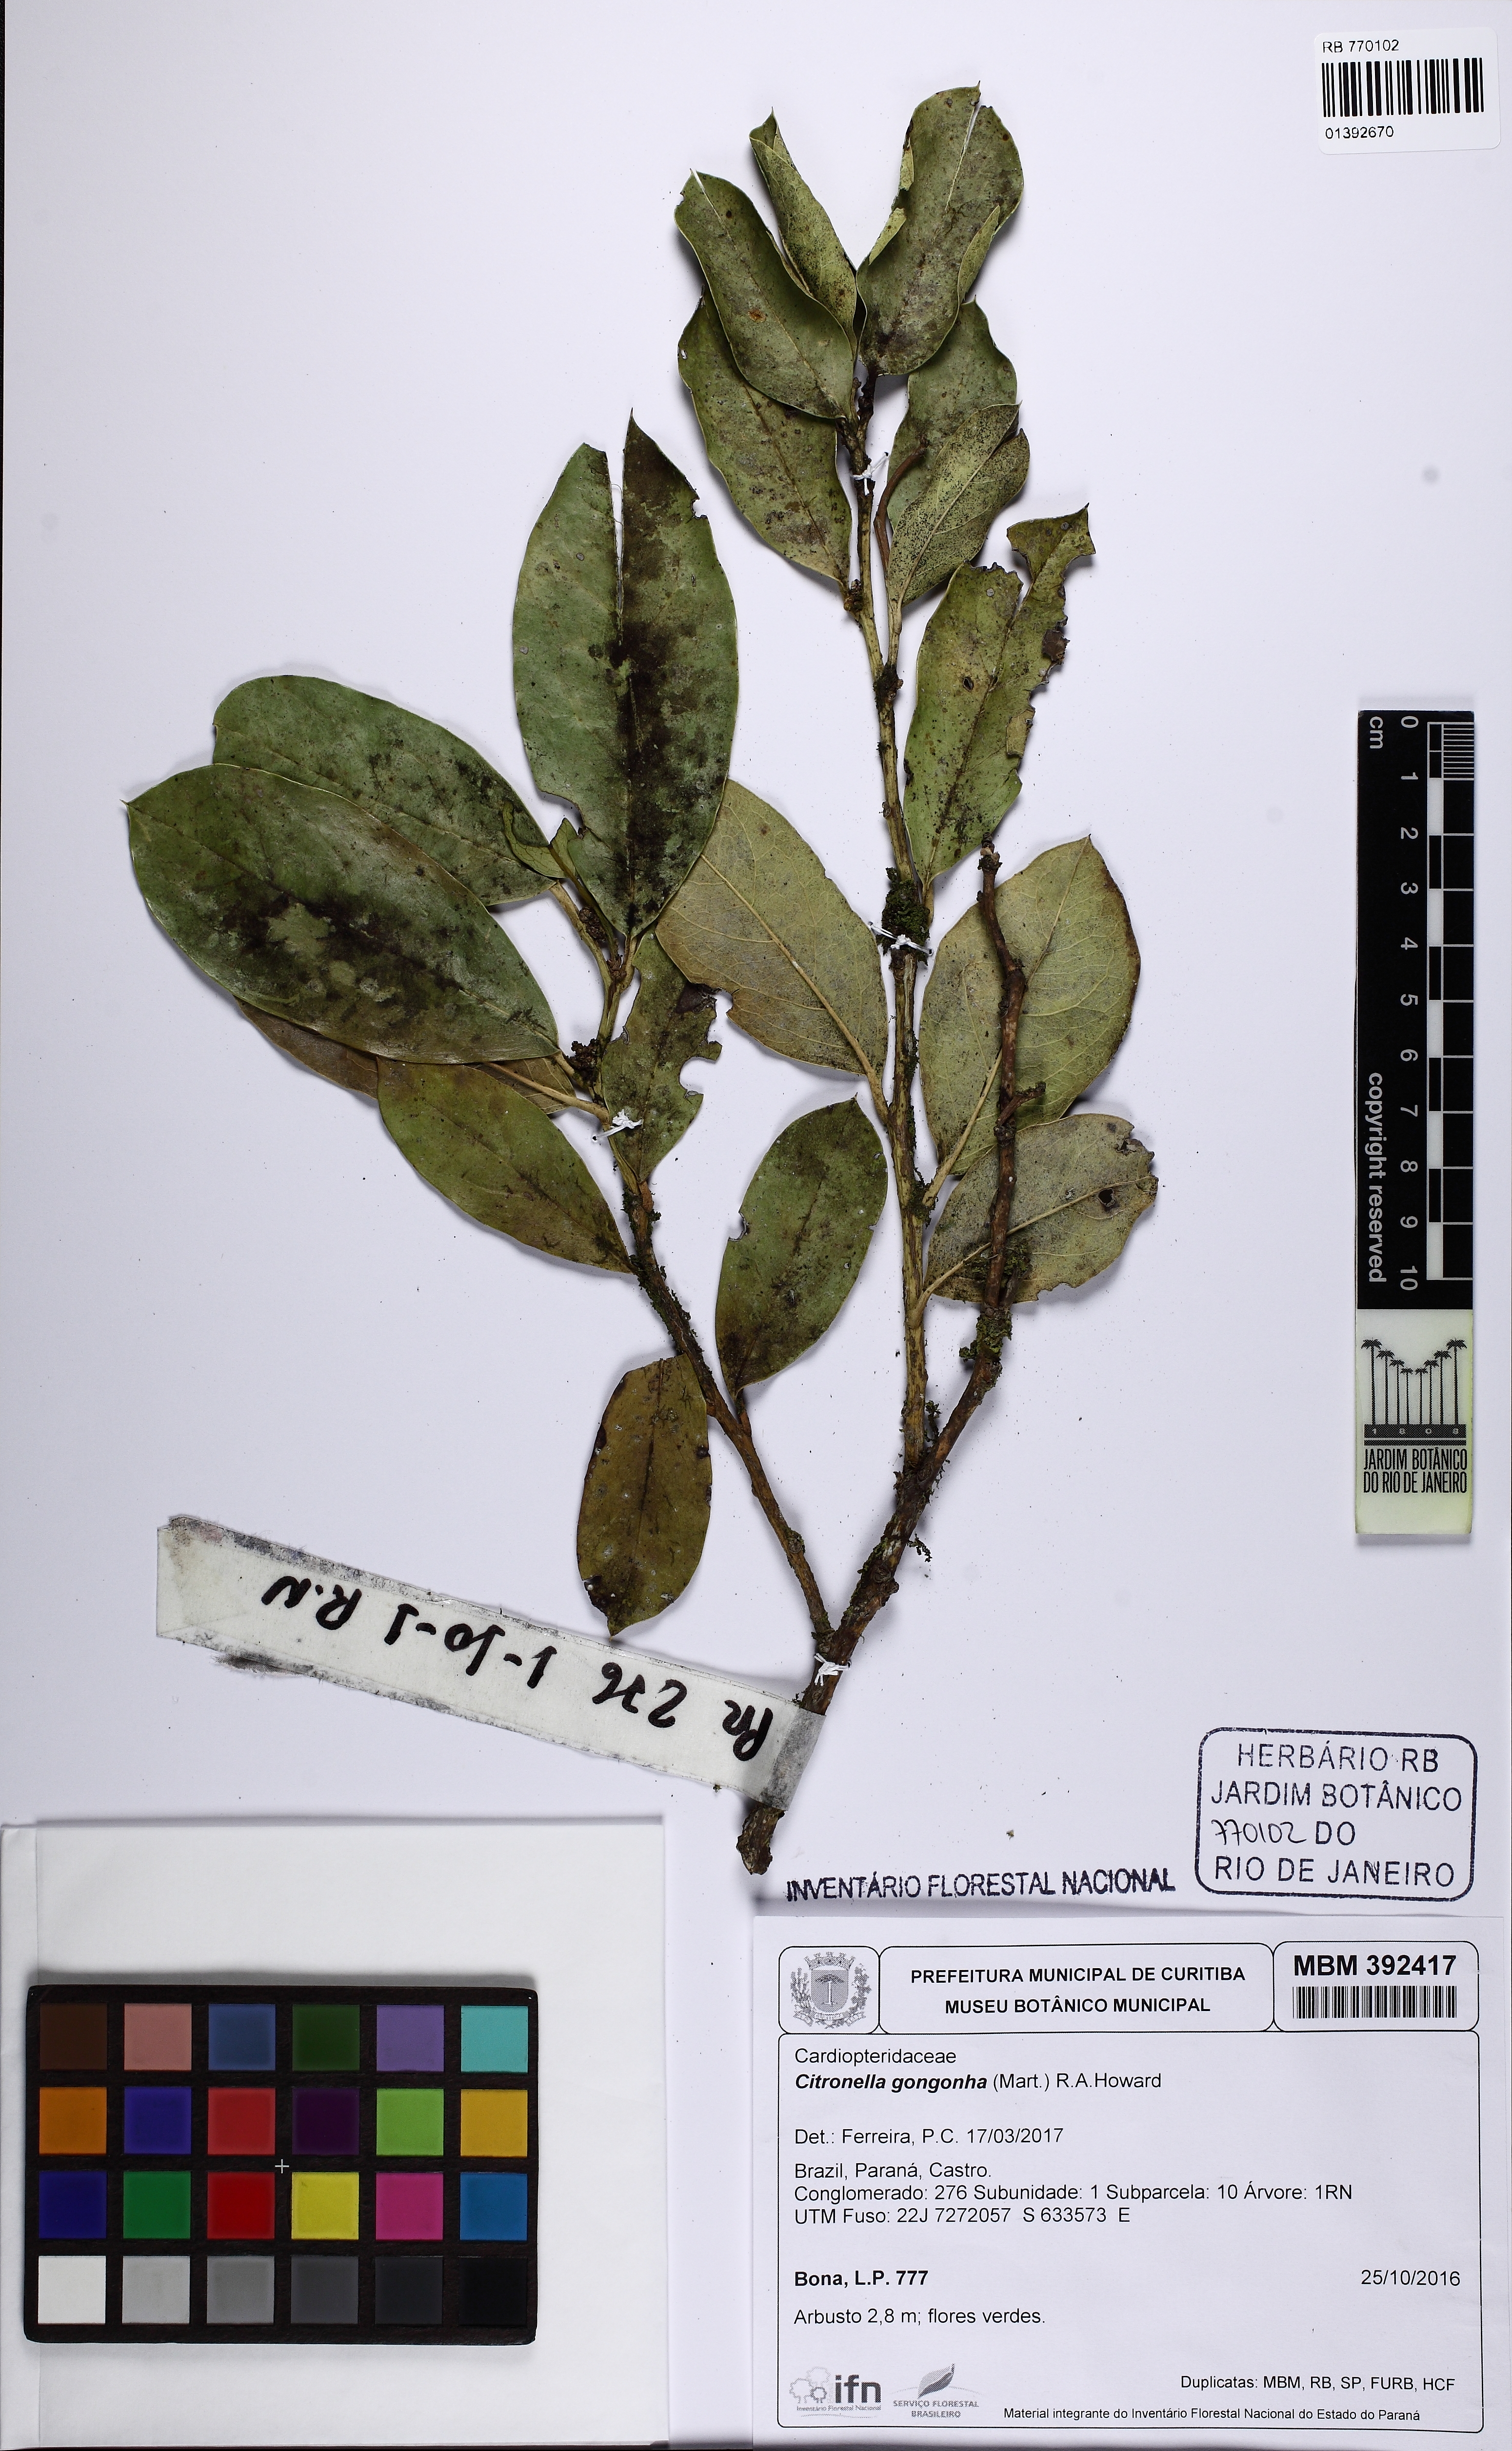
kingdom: Plantae
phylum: Tracheophyta
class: Magnoliopsida
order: Cardiopteridales
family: Cardiopteridaceae
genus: Citronella
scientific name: Citronella gongonha
